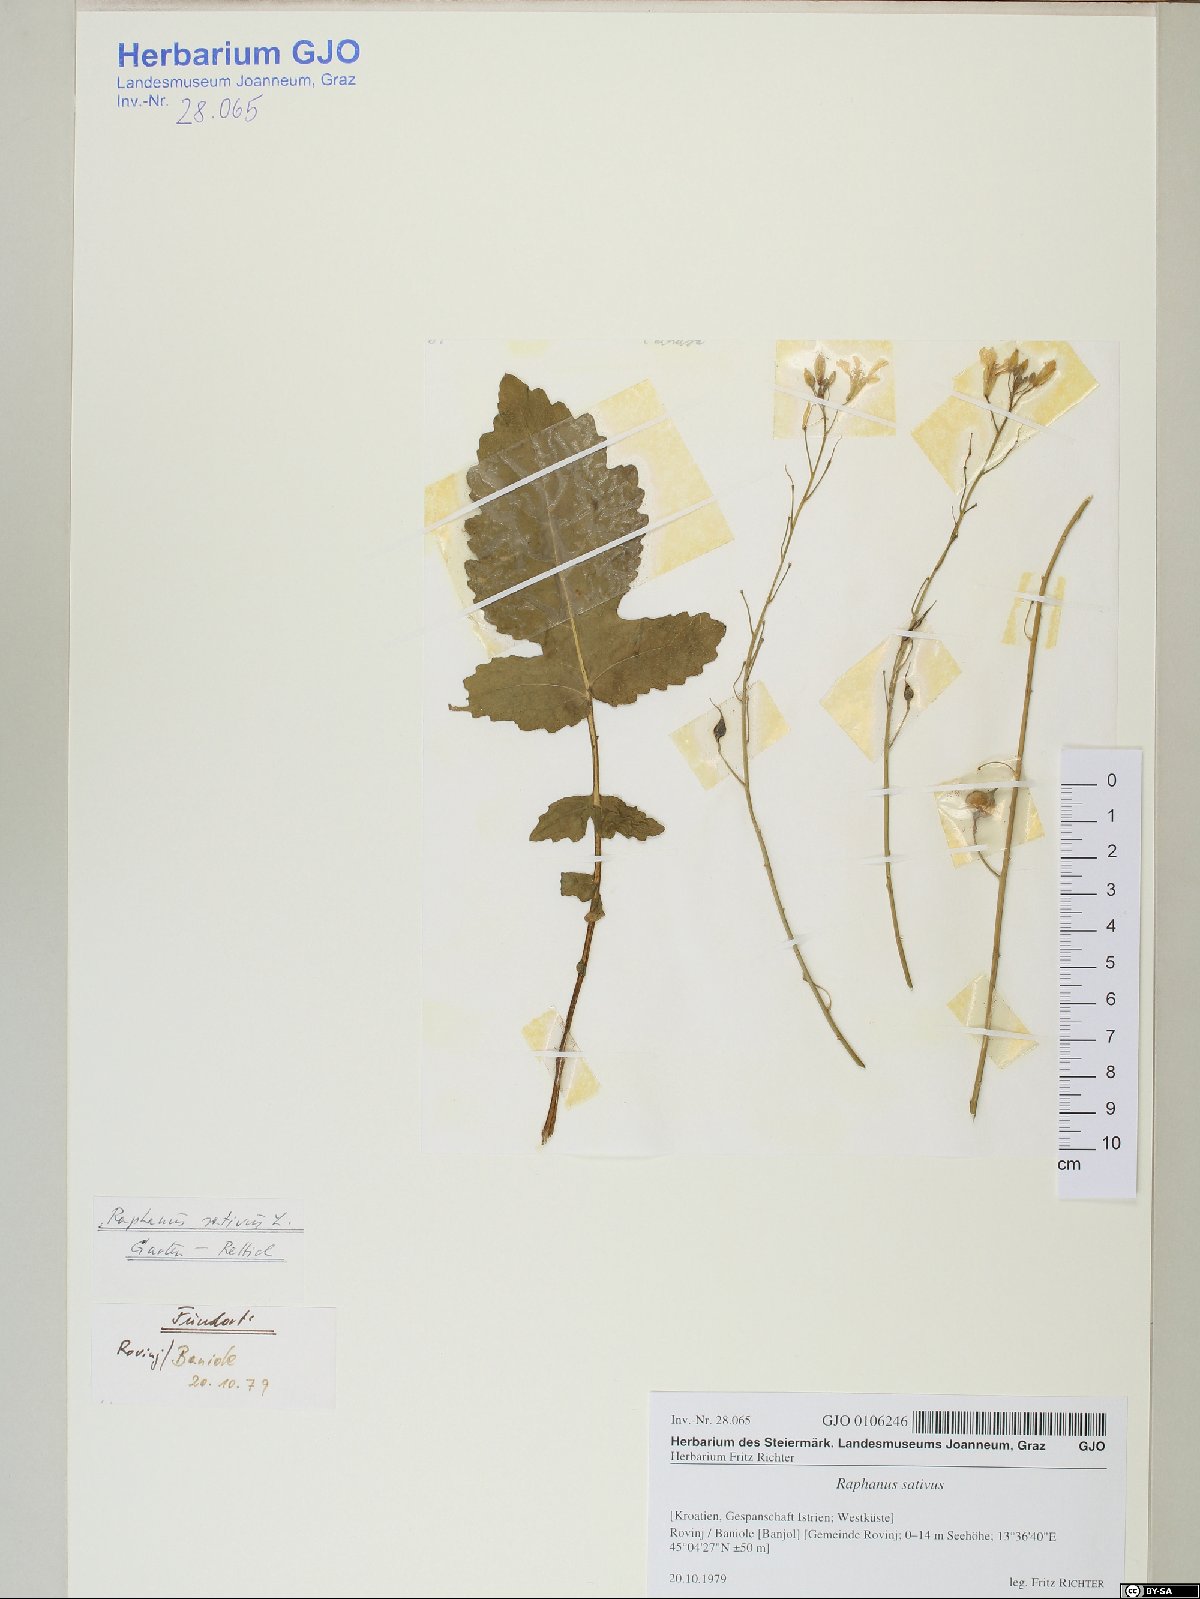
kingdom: Plantae
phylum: Tracheophyta
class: Magnoliopsida
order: Brassicales
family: Brassicaceae
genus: Raphanus
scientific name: Raphanus raphanistrum
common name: Wild radish
